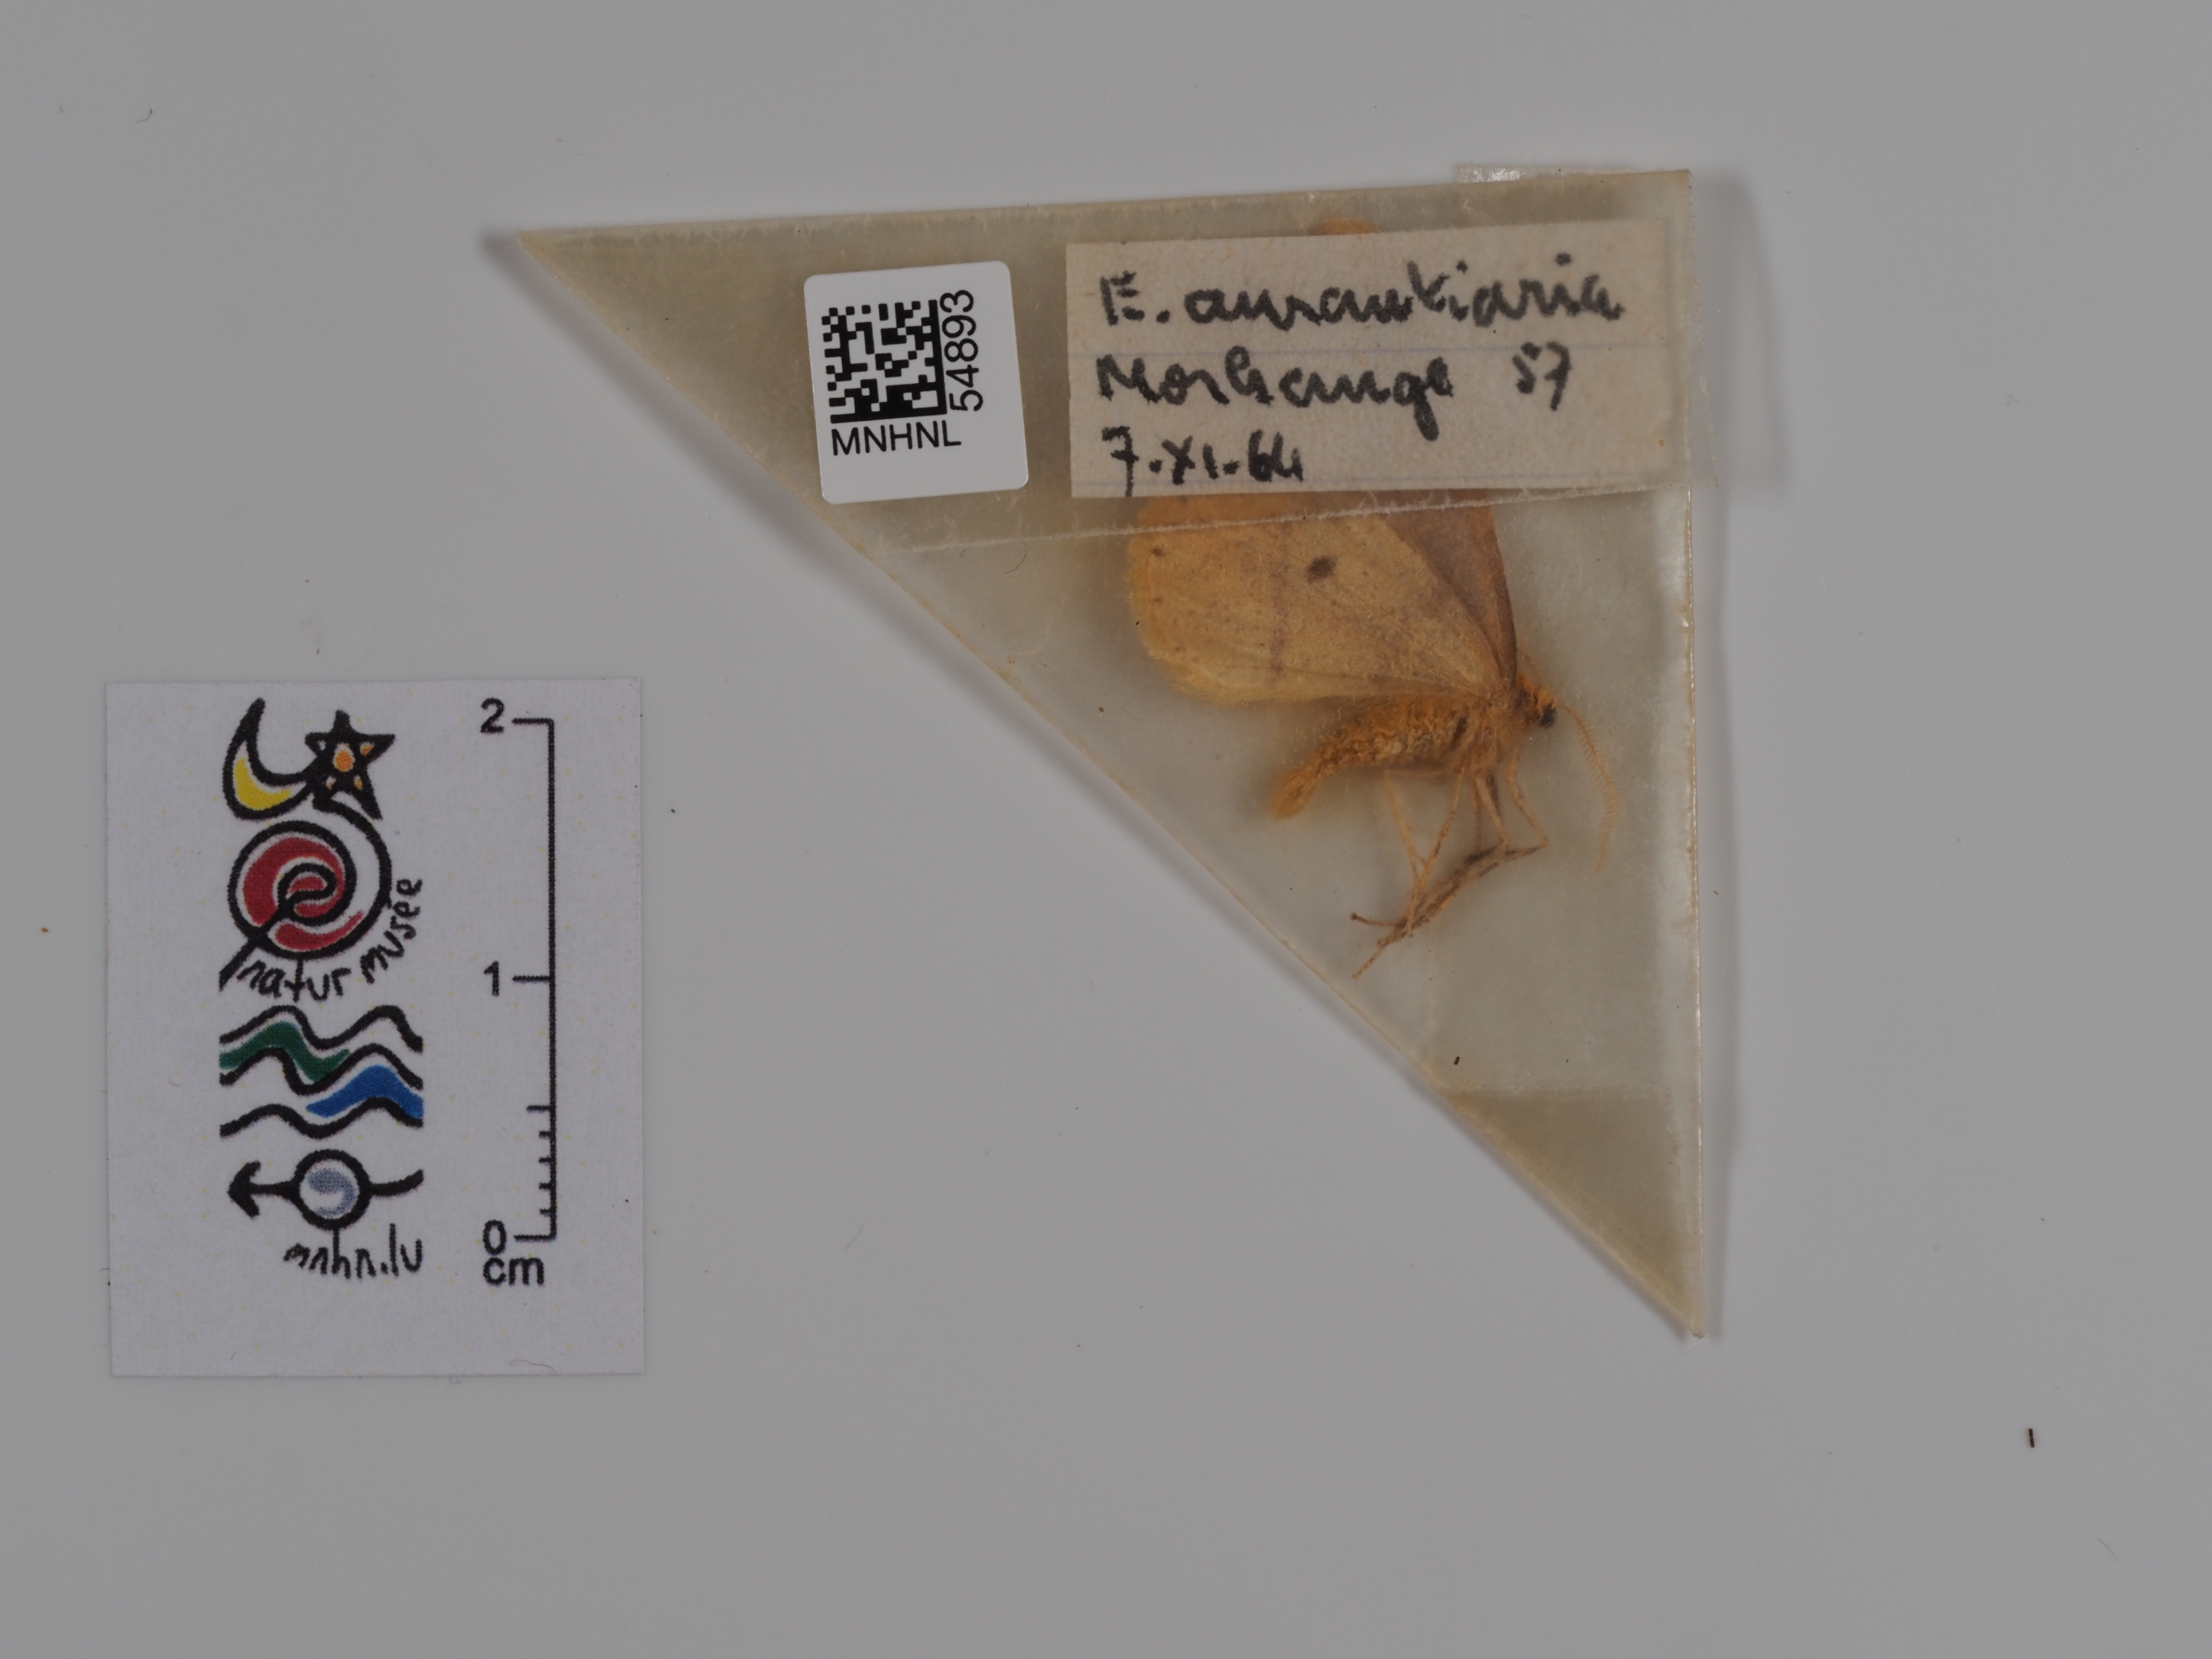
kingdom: Animalia
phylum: Arthropoda
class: Insecta
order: Lepidoptera
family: Geometridae
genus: Erannis
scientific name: Erannis
